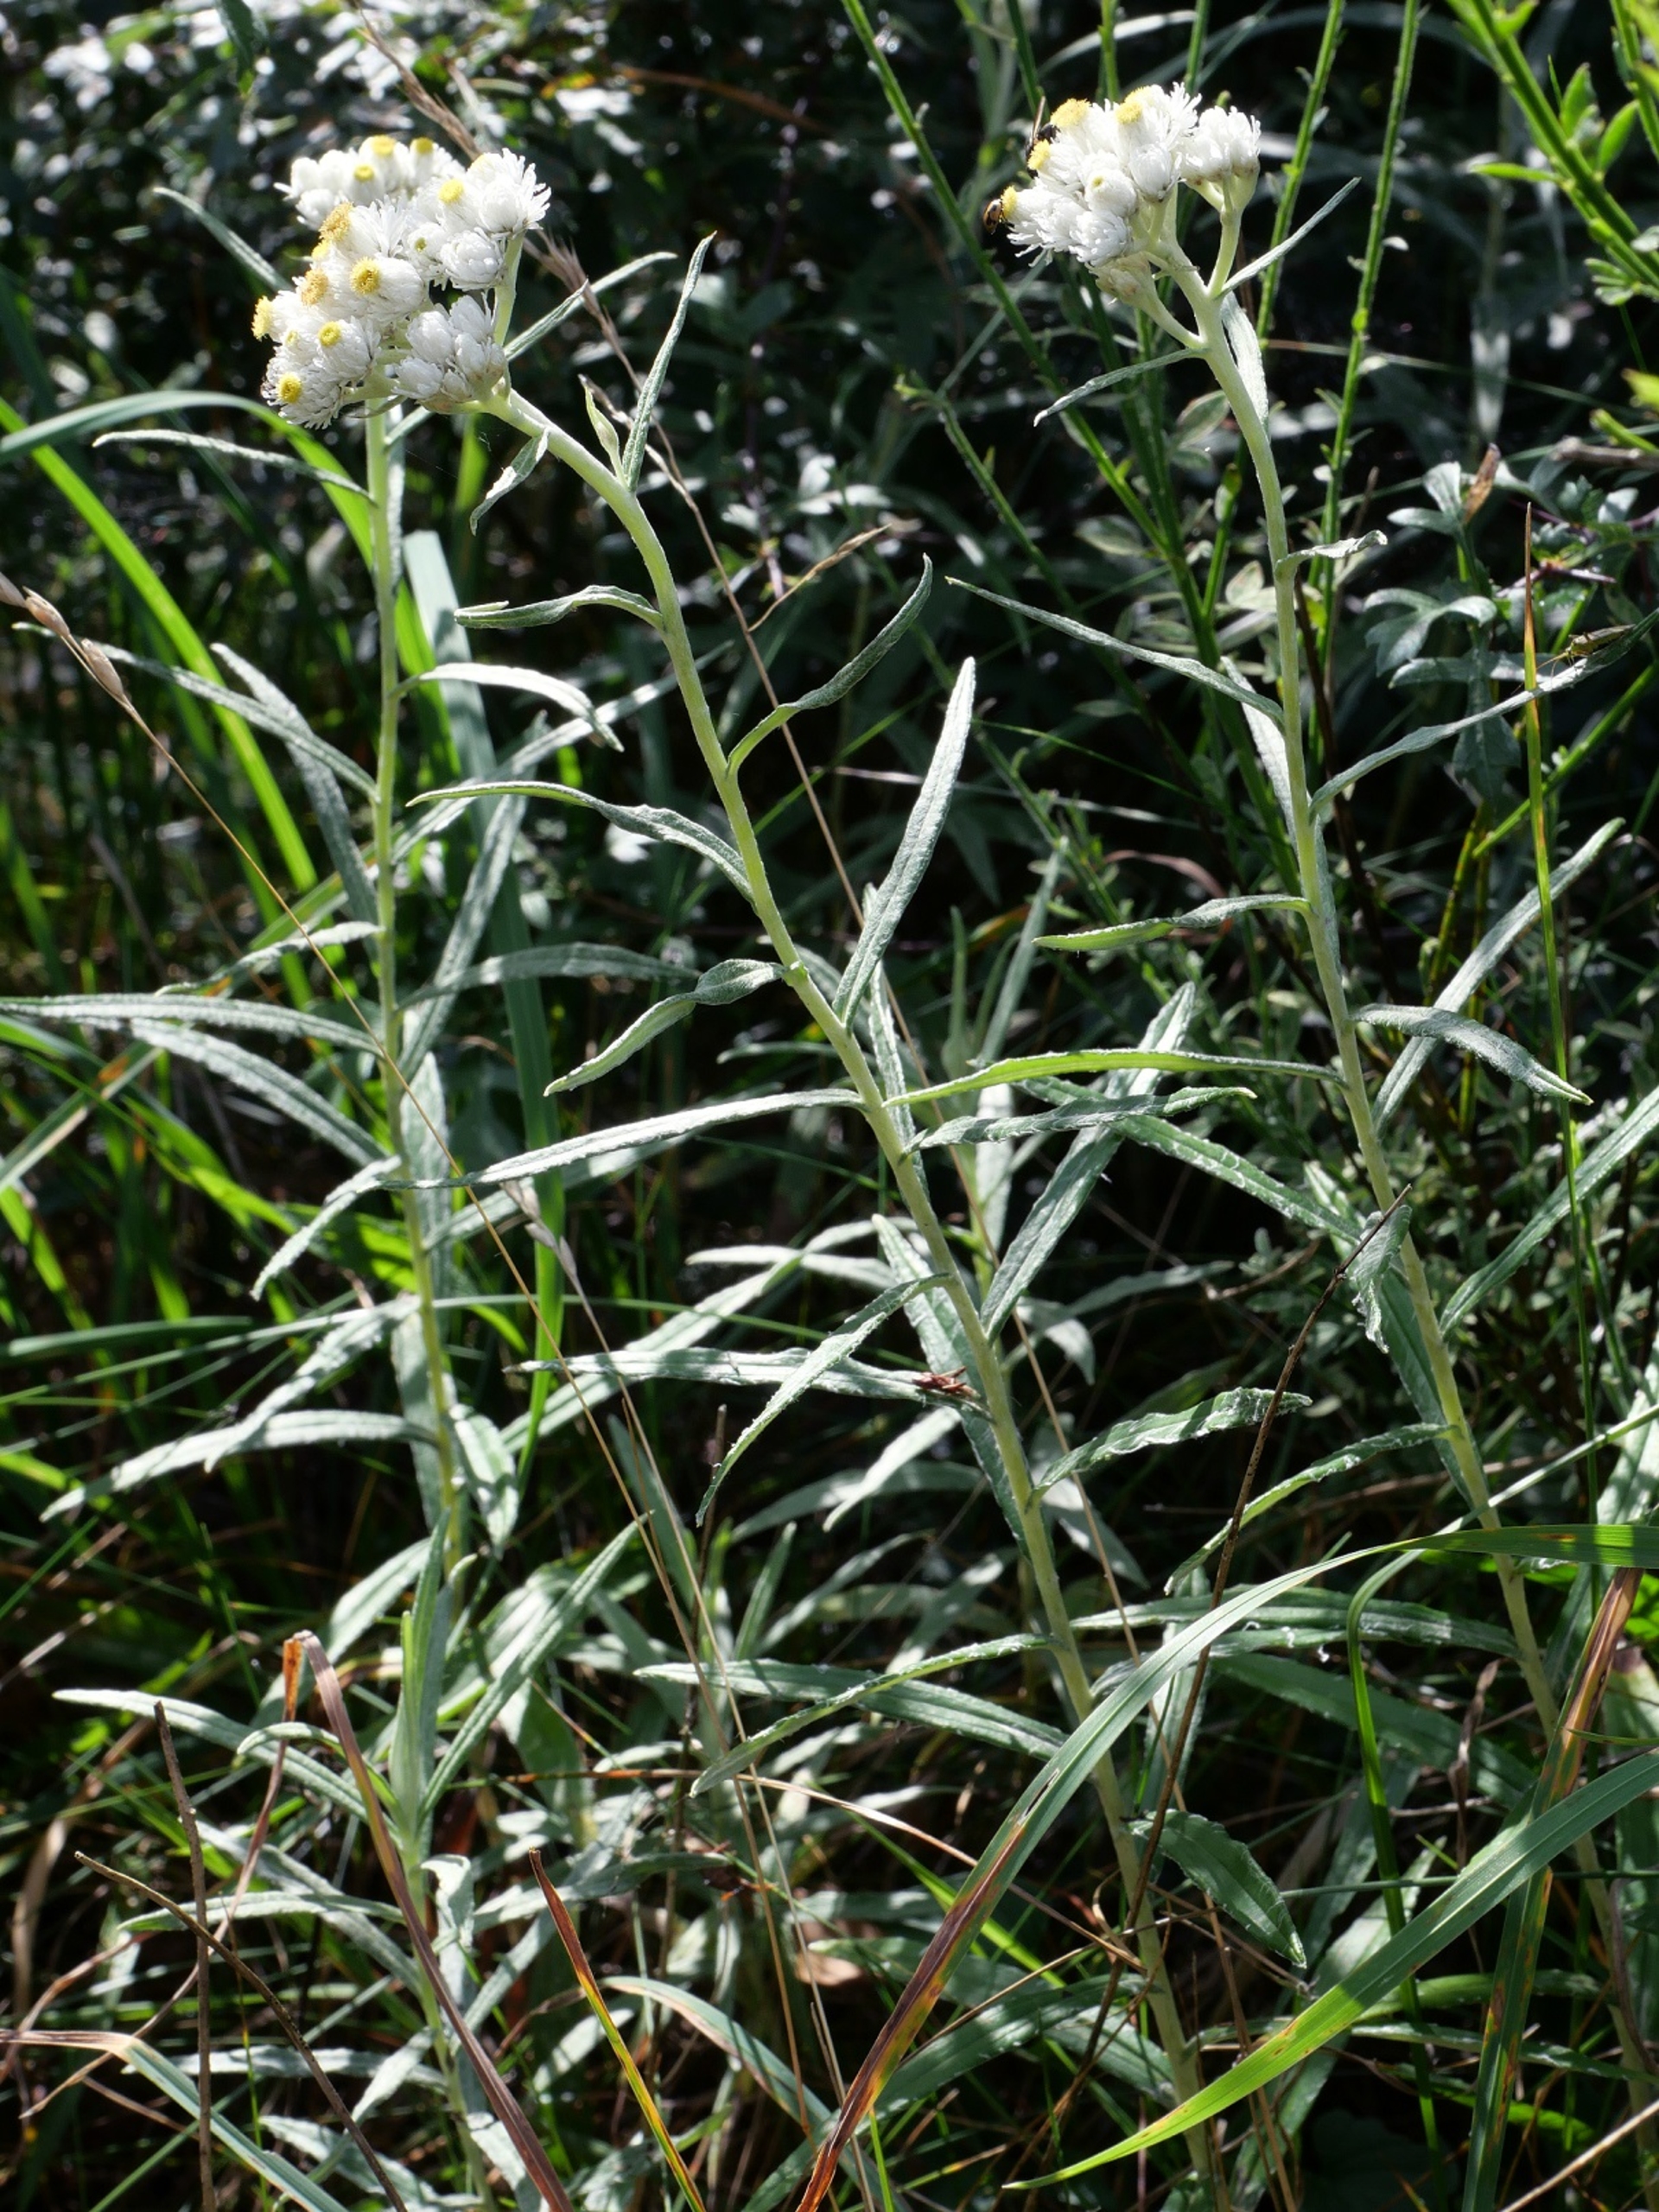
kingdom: Plantae
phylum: Tracheophyta
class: Magnoliopsida
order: Asterales
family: Asteraceae
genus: Anaphalis
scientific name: Anaphalis margaritacea
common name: Perlekurv
